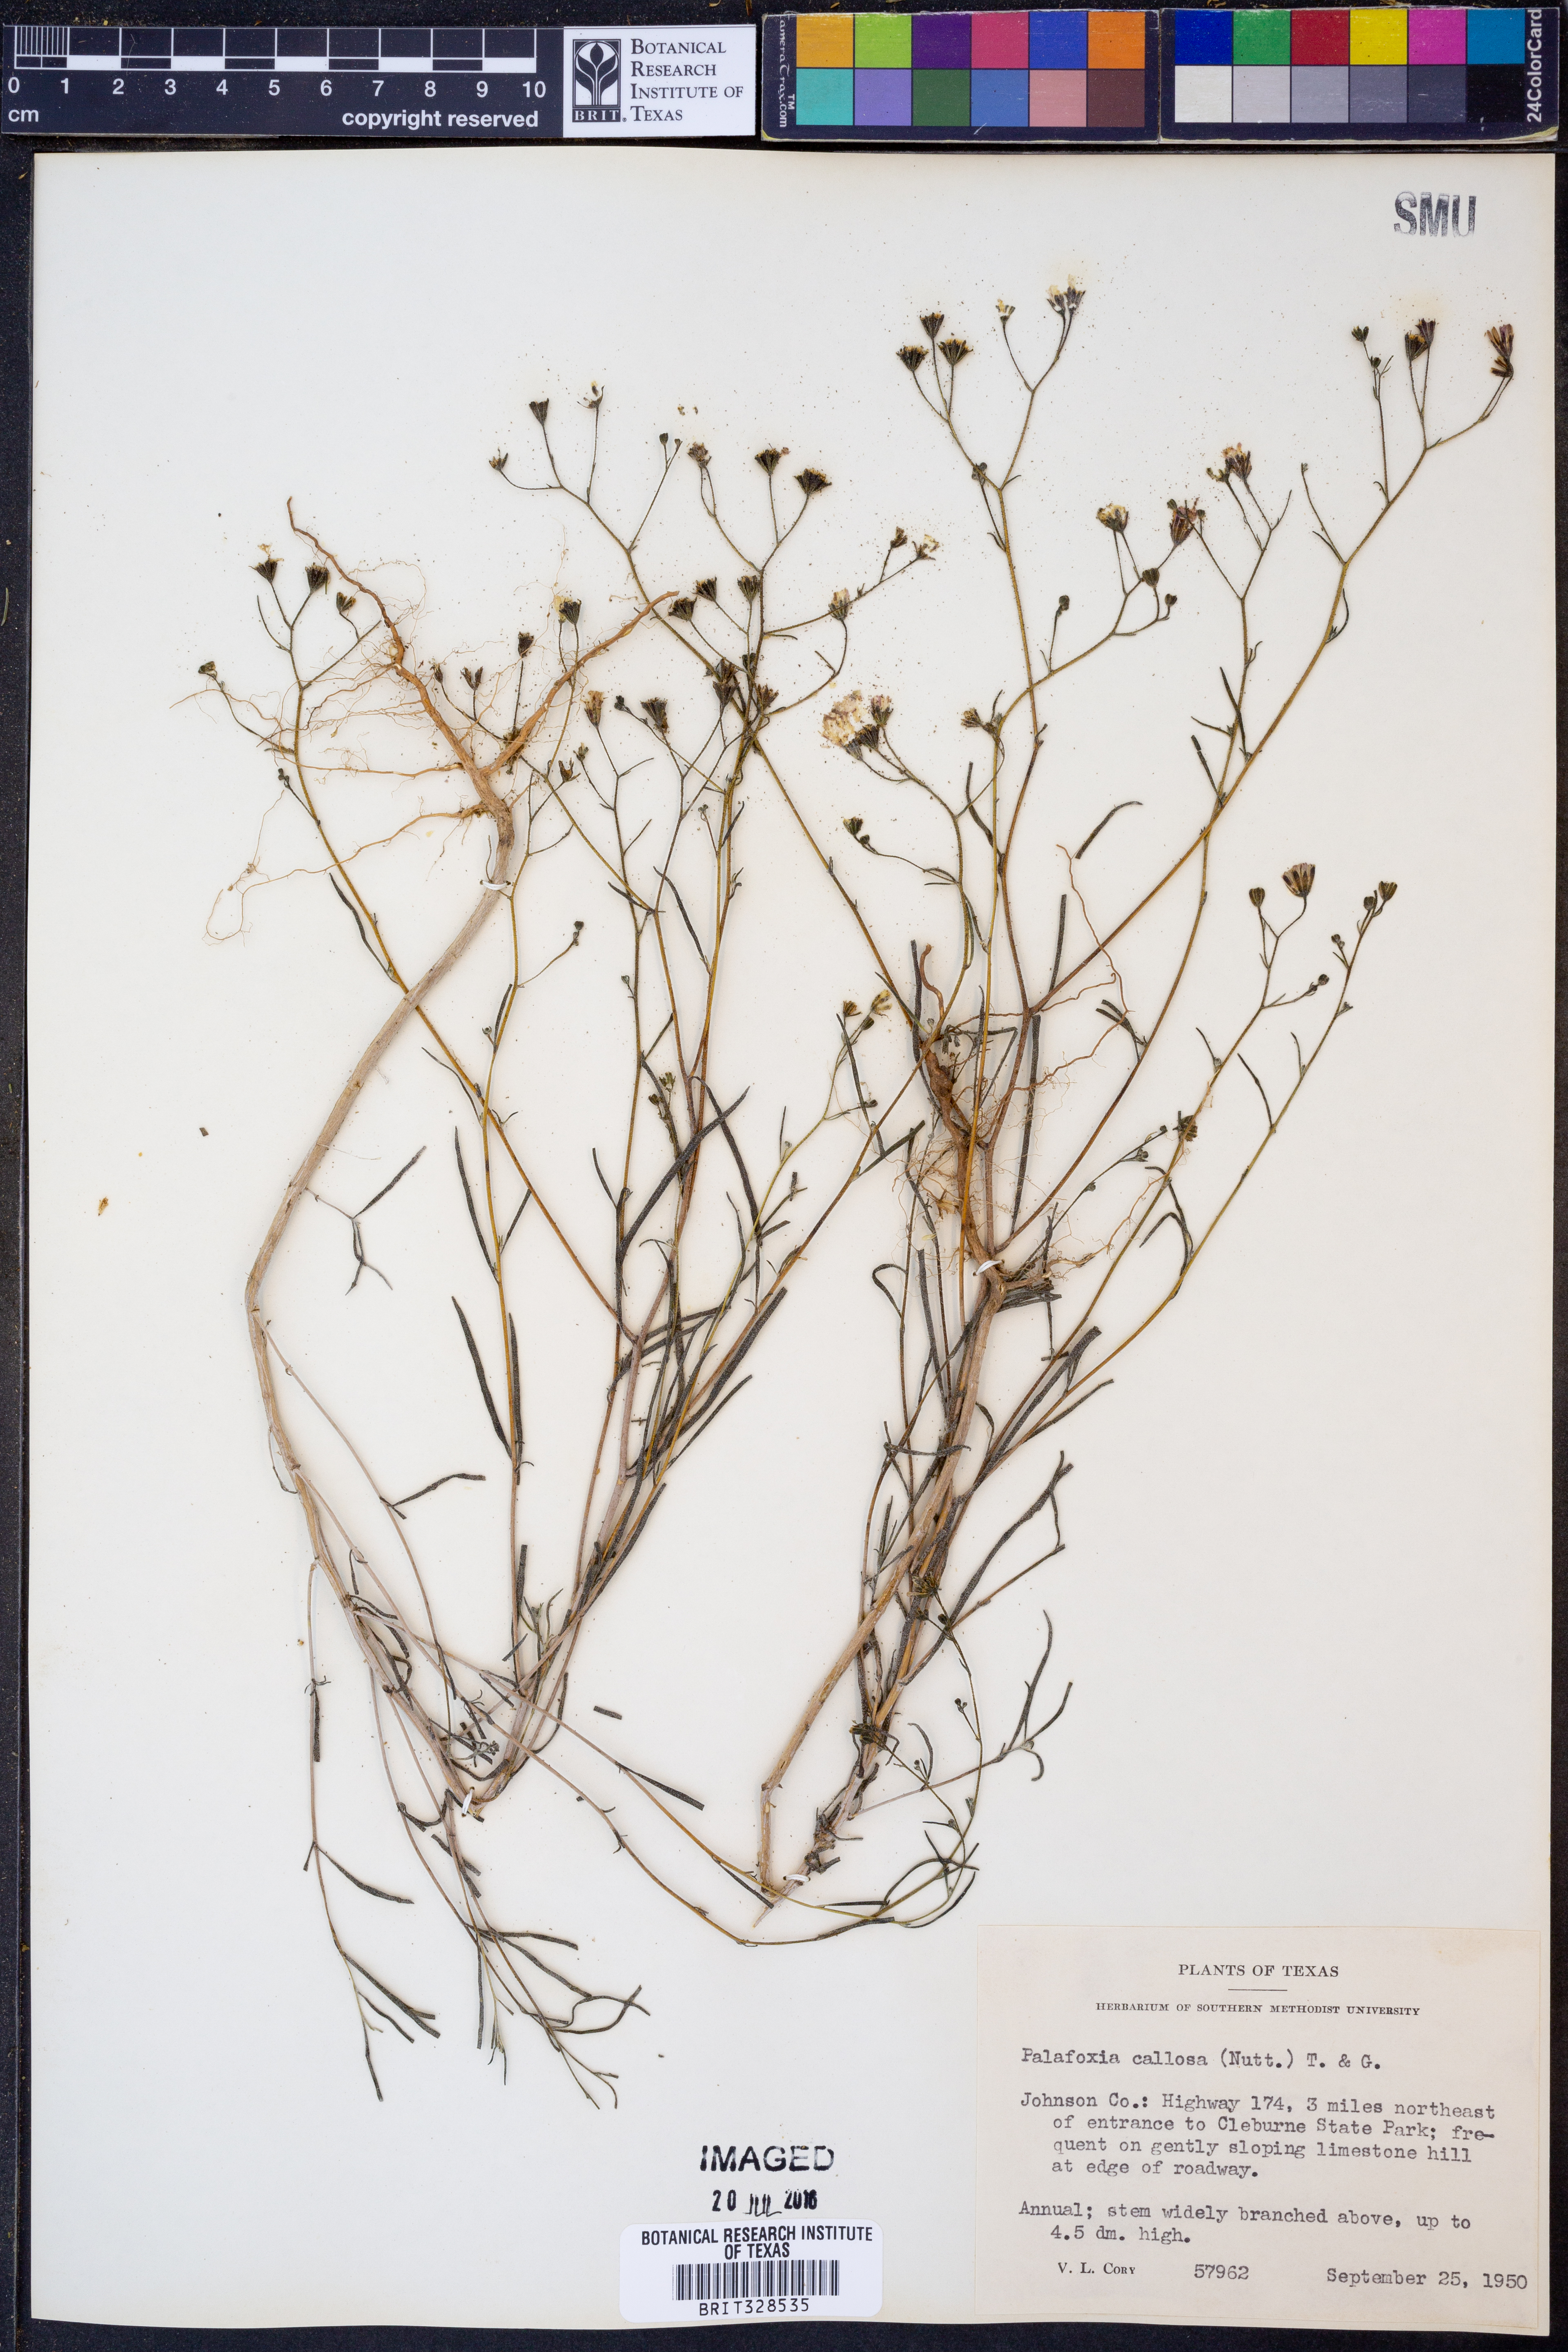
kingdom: Plantae
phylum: Tracheophyta
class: Magnoliopsida
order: Asterales
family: Asteraceae
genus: Palafoxia
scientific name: Palafoxia callosa
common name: Small palafox
